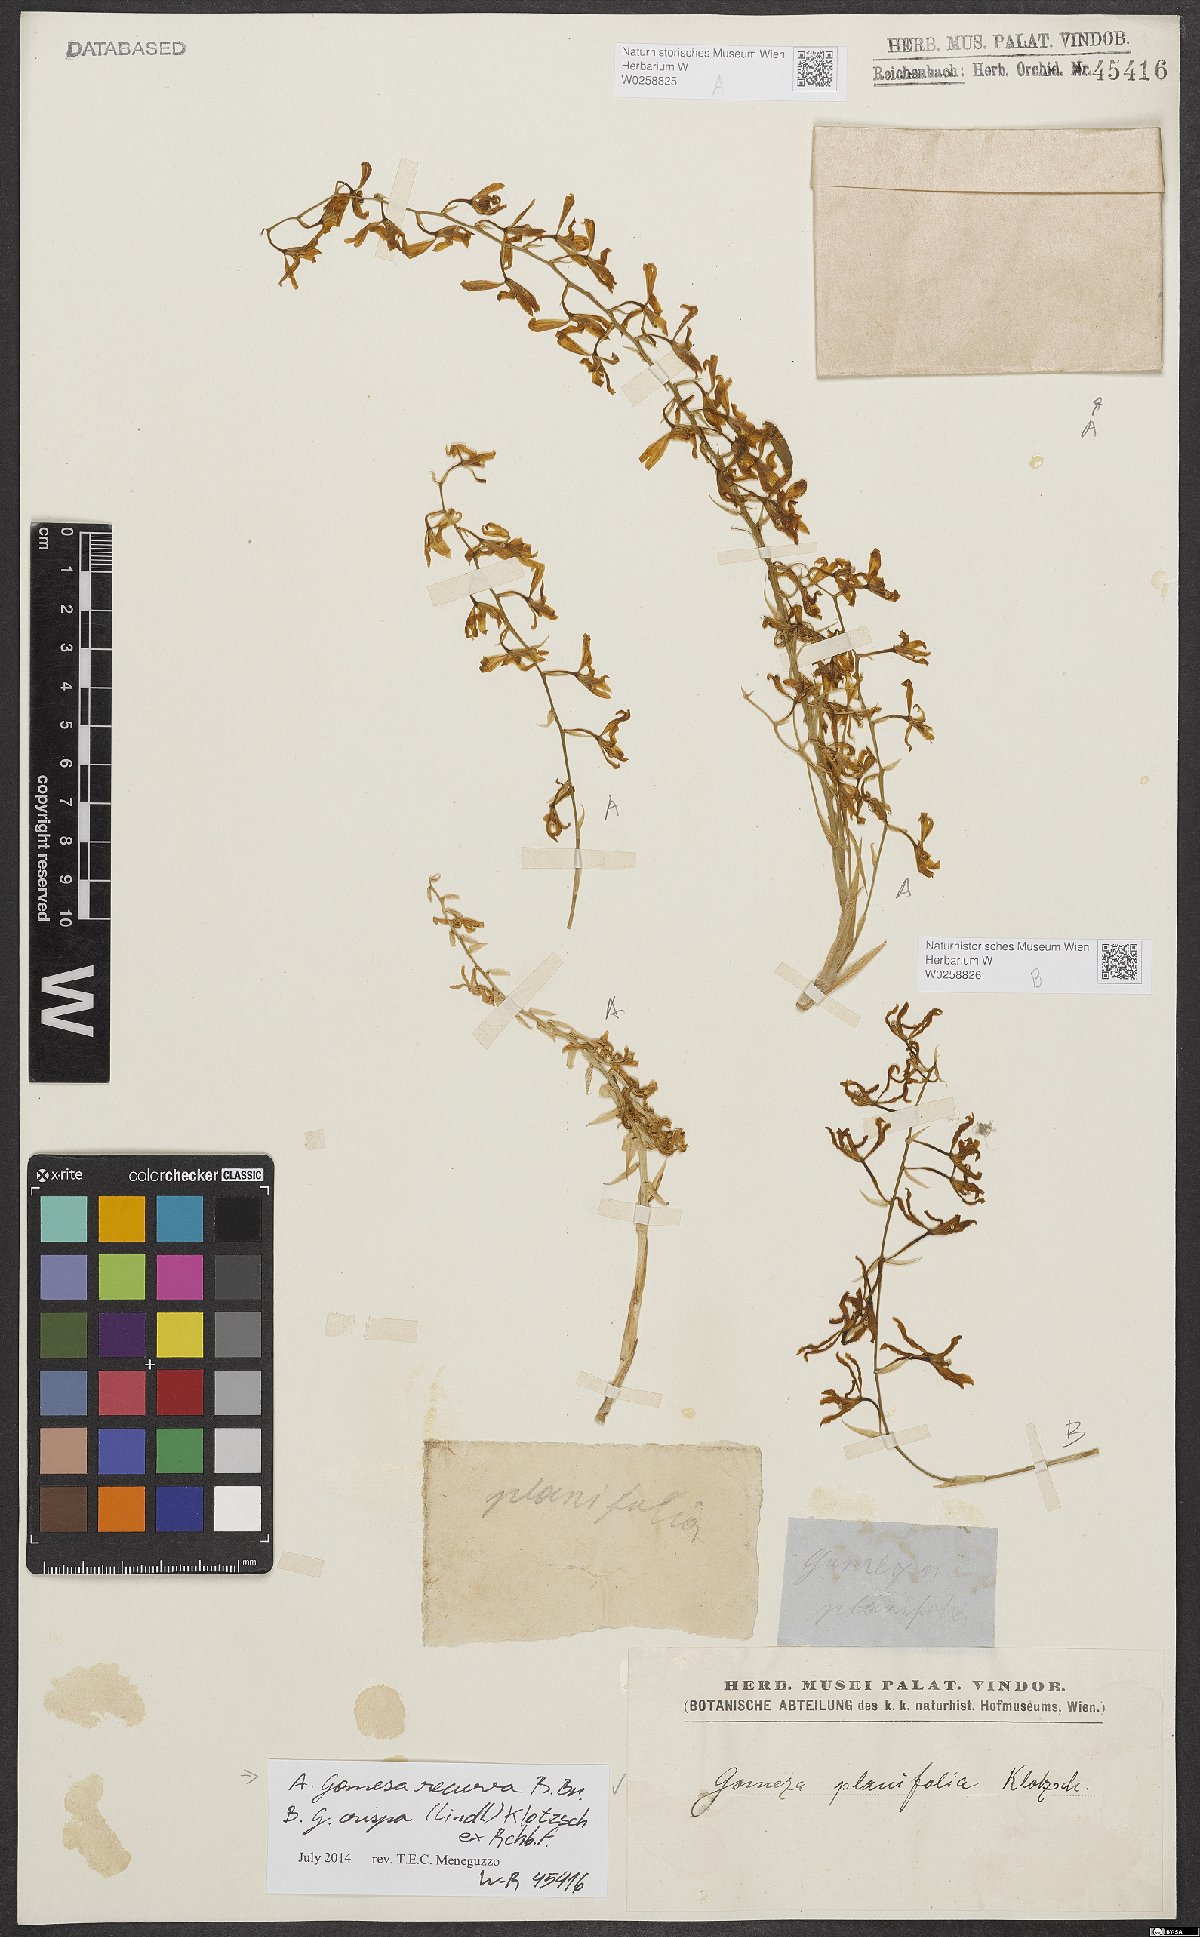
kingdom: Plantae
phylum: Tracheophyta
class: Liliopsida
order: Asparagales
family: Orchidaceae
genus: Gomesa
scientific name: Gomesa recurva
